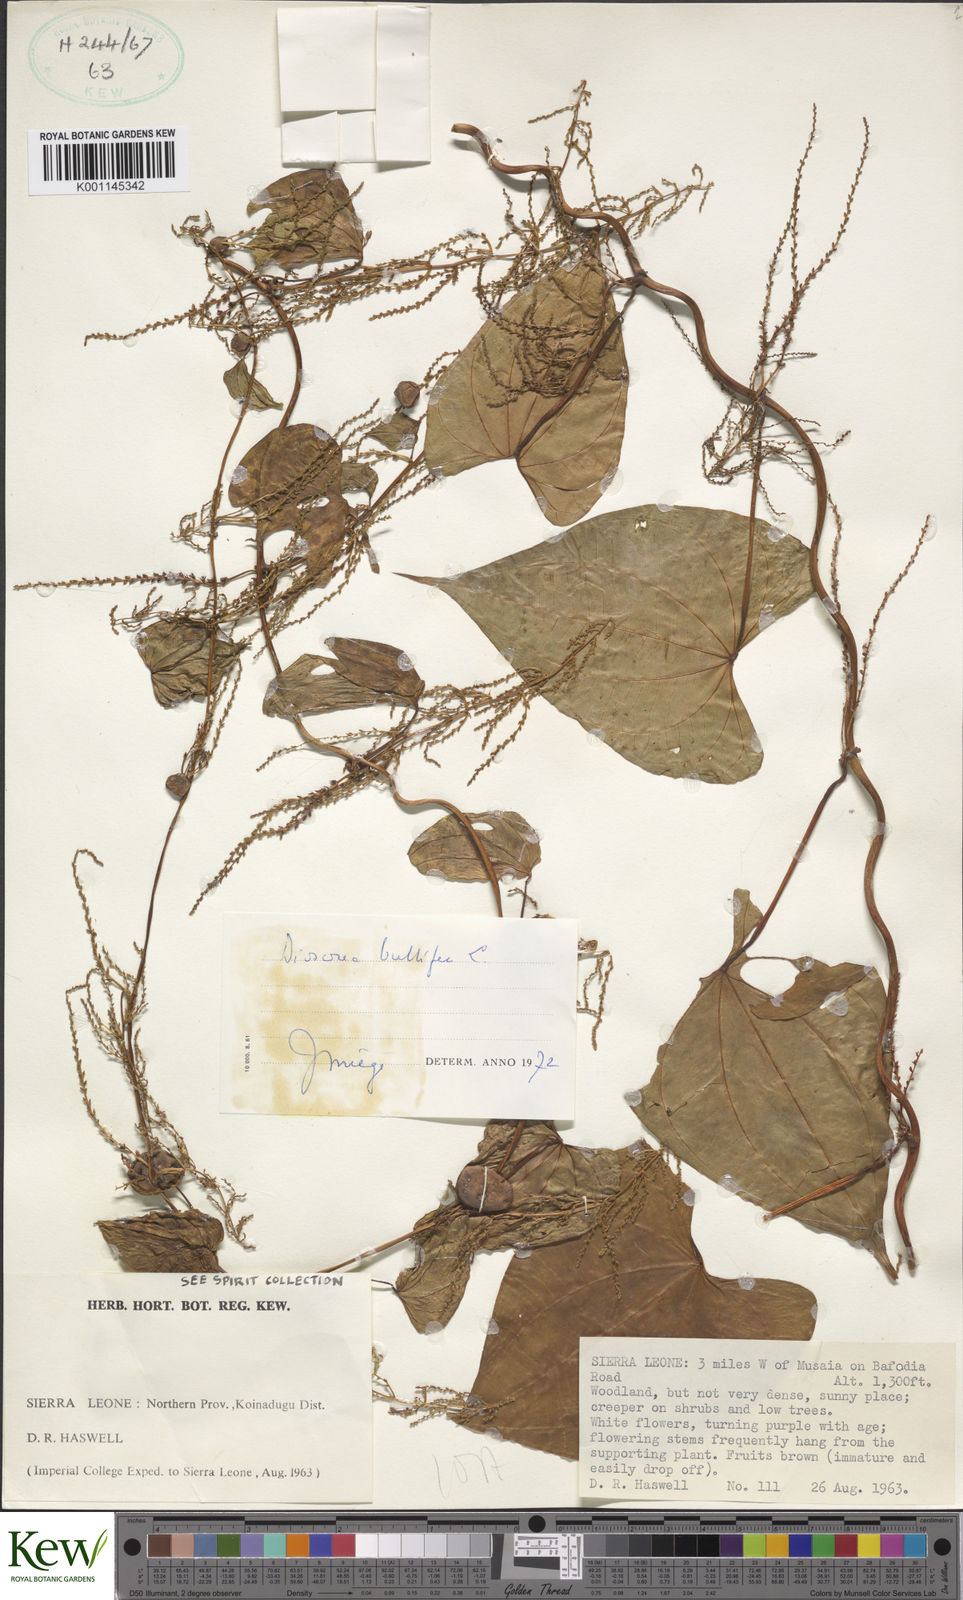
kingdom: Plantae
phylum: Tracheophyta
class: Liliopsida
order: Dioscoreales
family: Dioscoreaceae
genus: Dioscorea
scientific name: Dioscorea bulbifera
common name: Air yam
